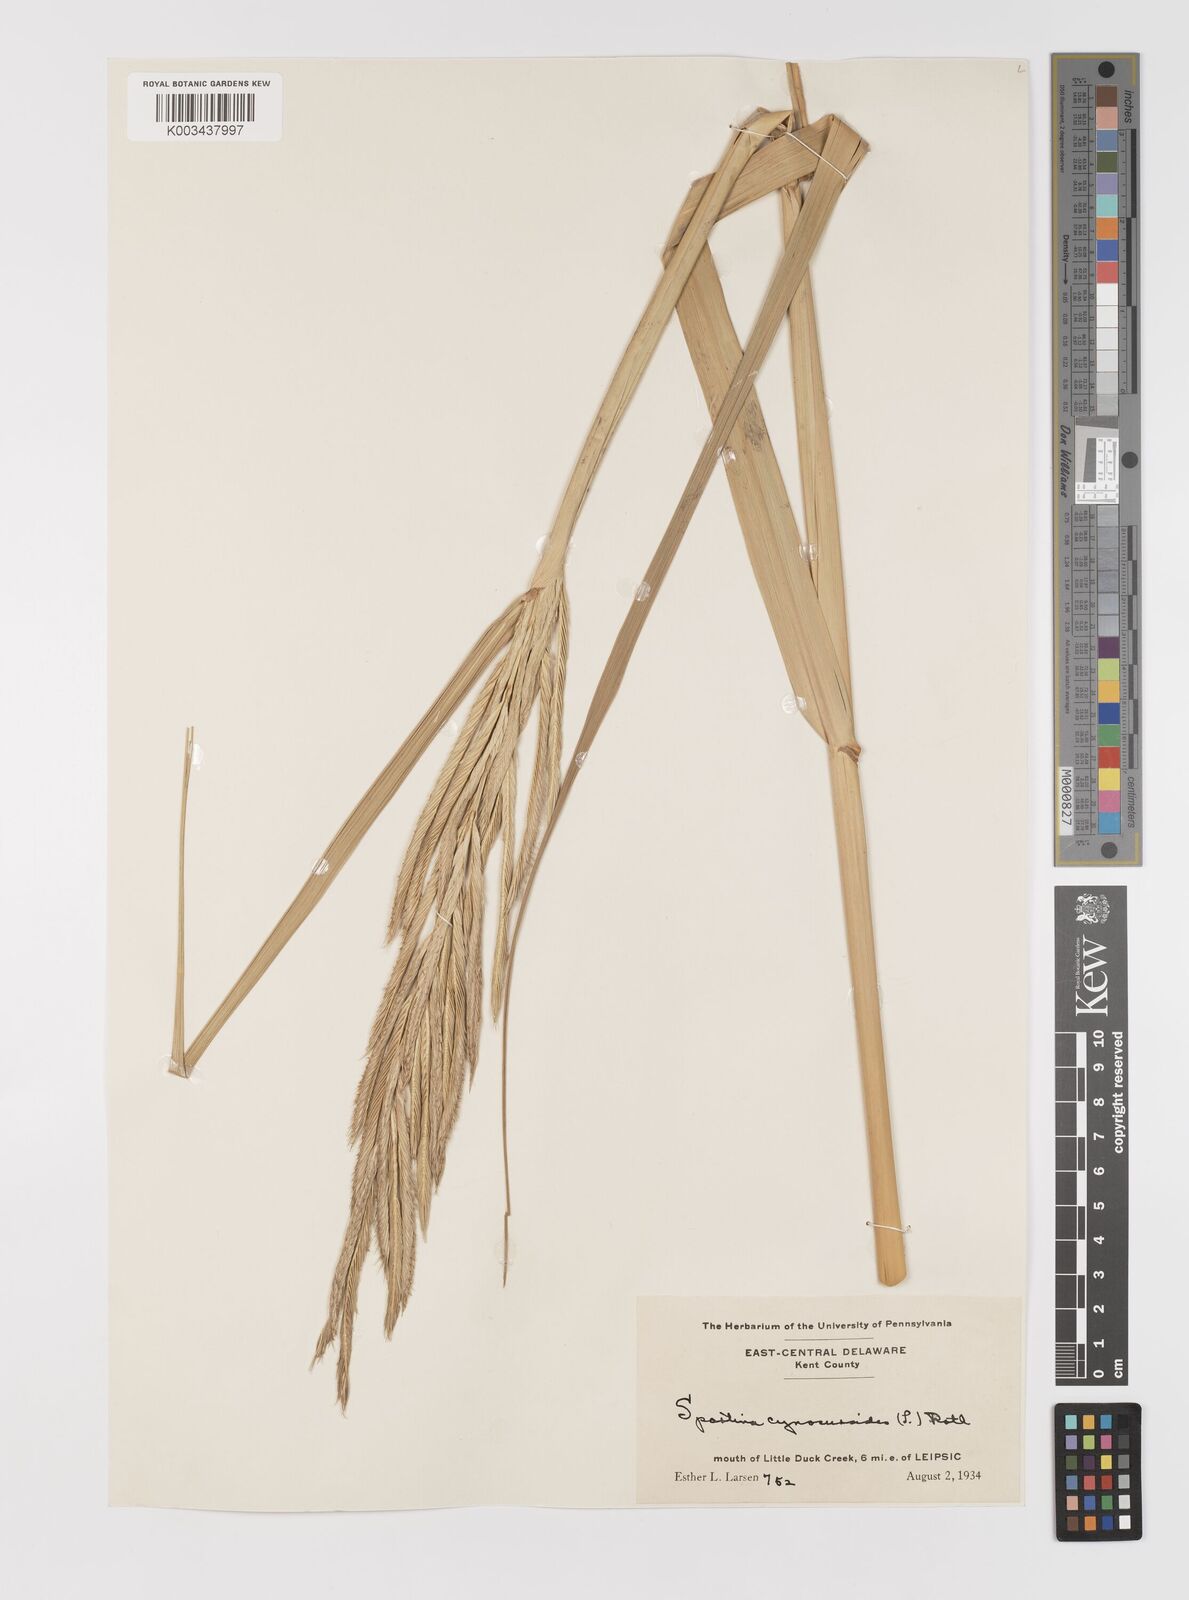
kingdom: Plantae
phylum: Tracheophyta
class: Liliopsida
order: Poales
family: Poaceae
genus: Sporobolus
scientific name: Sporobolus cynosuroides
